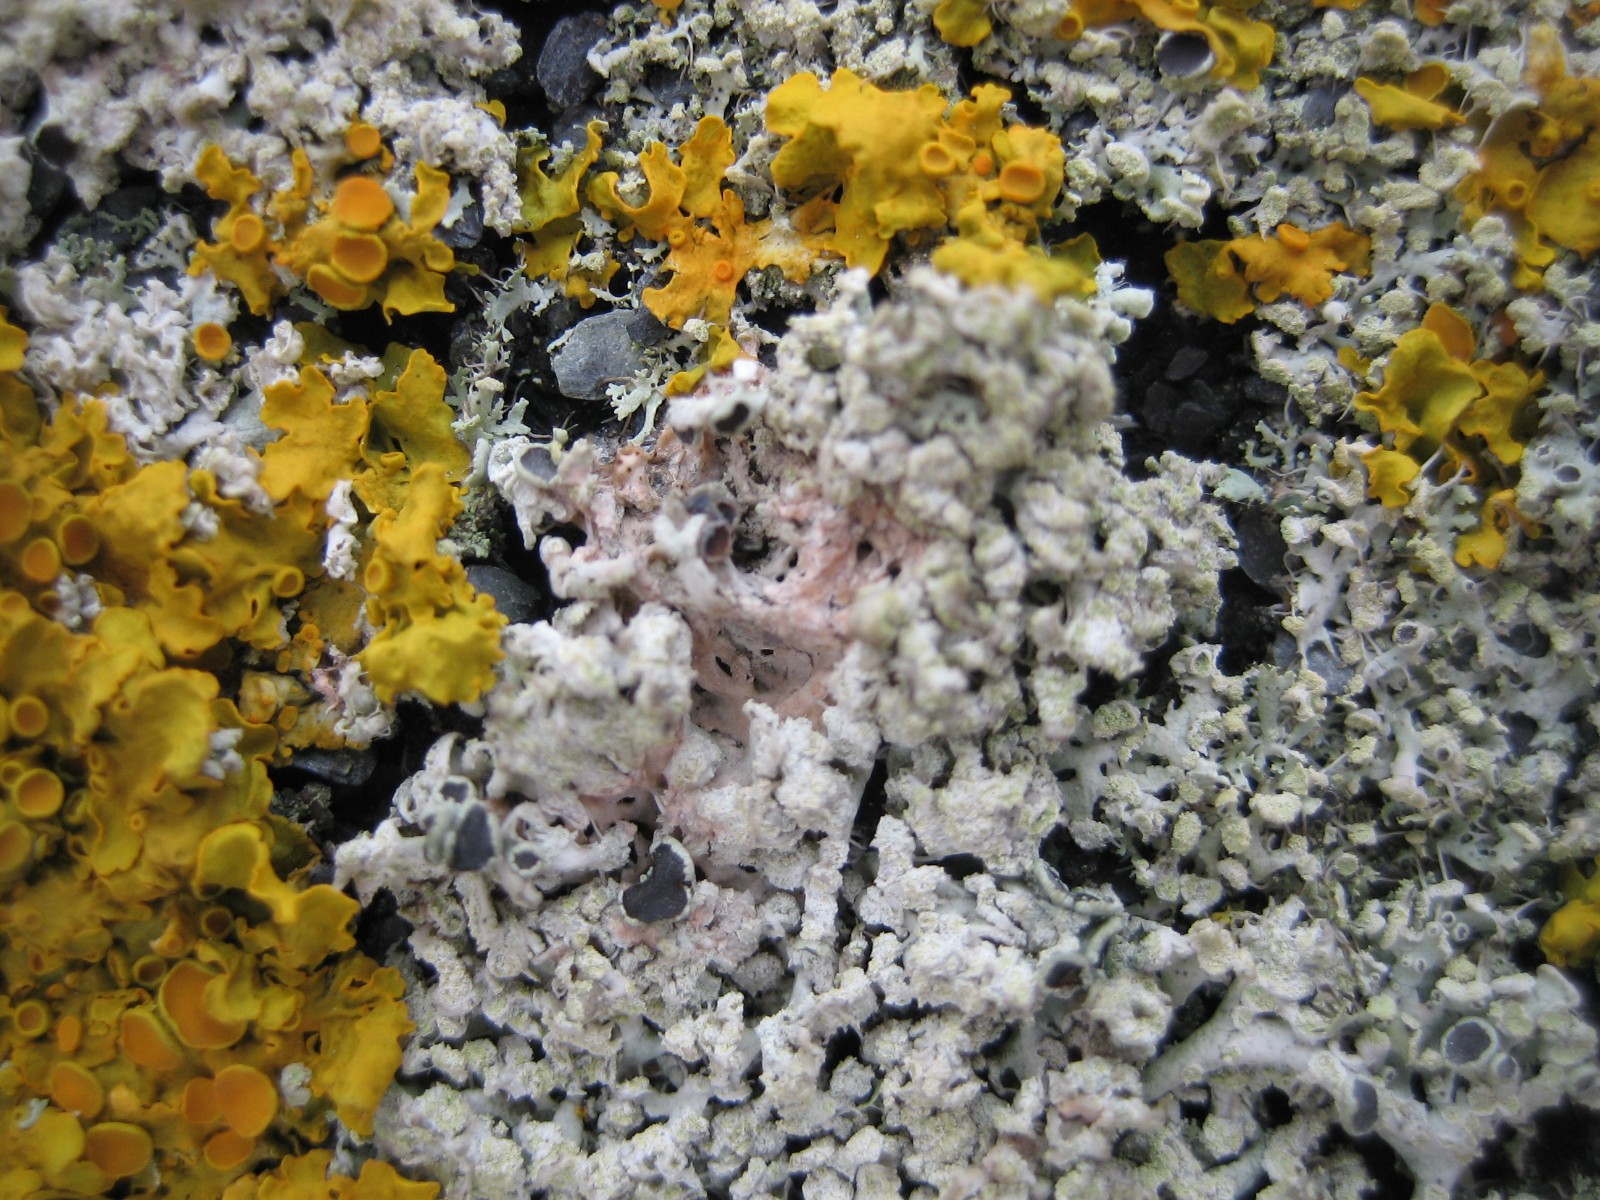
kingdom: Fungi
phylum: Ascomycota
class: Sordariomycetes
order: Hypocreales
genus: Illosporiopsis
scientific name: Illosporiopsis christiansenii
